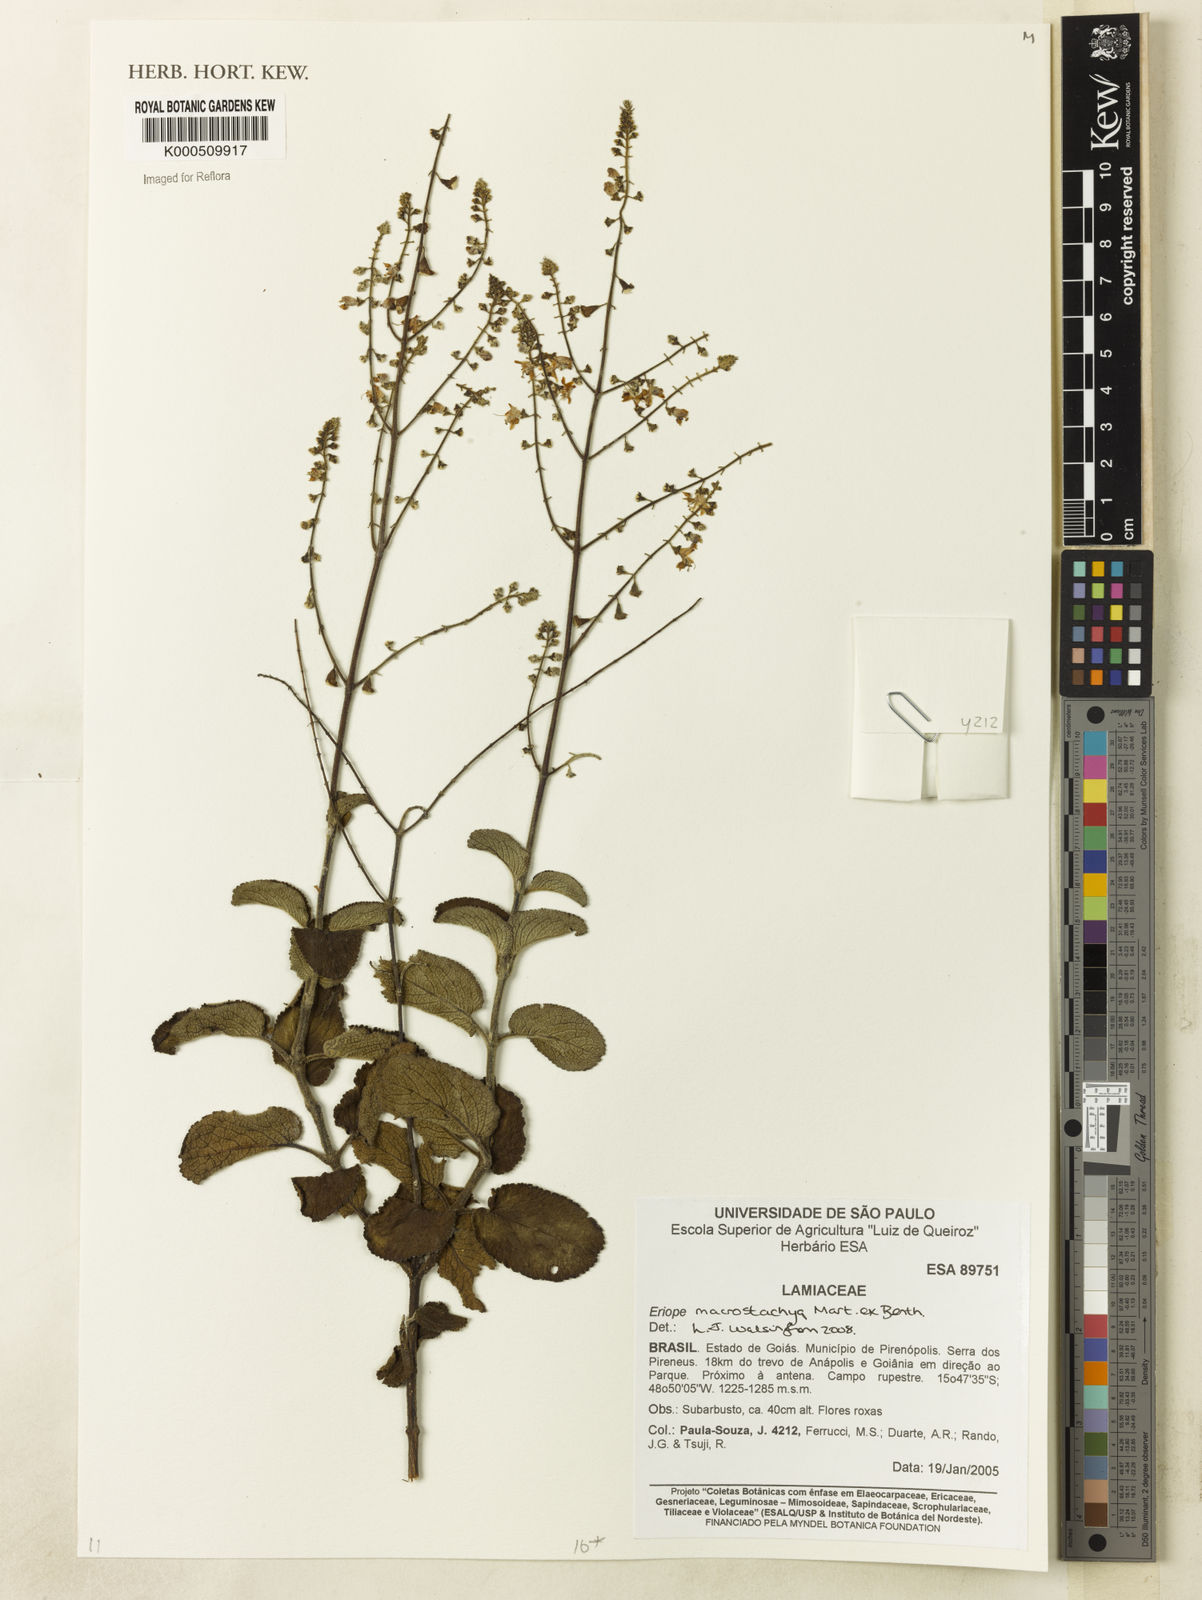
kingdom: Plantae
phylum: Tracheophyta
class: Magnoliopsida
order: Lamiales
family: Lamiaceae
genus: Eriope
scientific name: Eriope macrostachya
